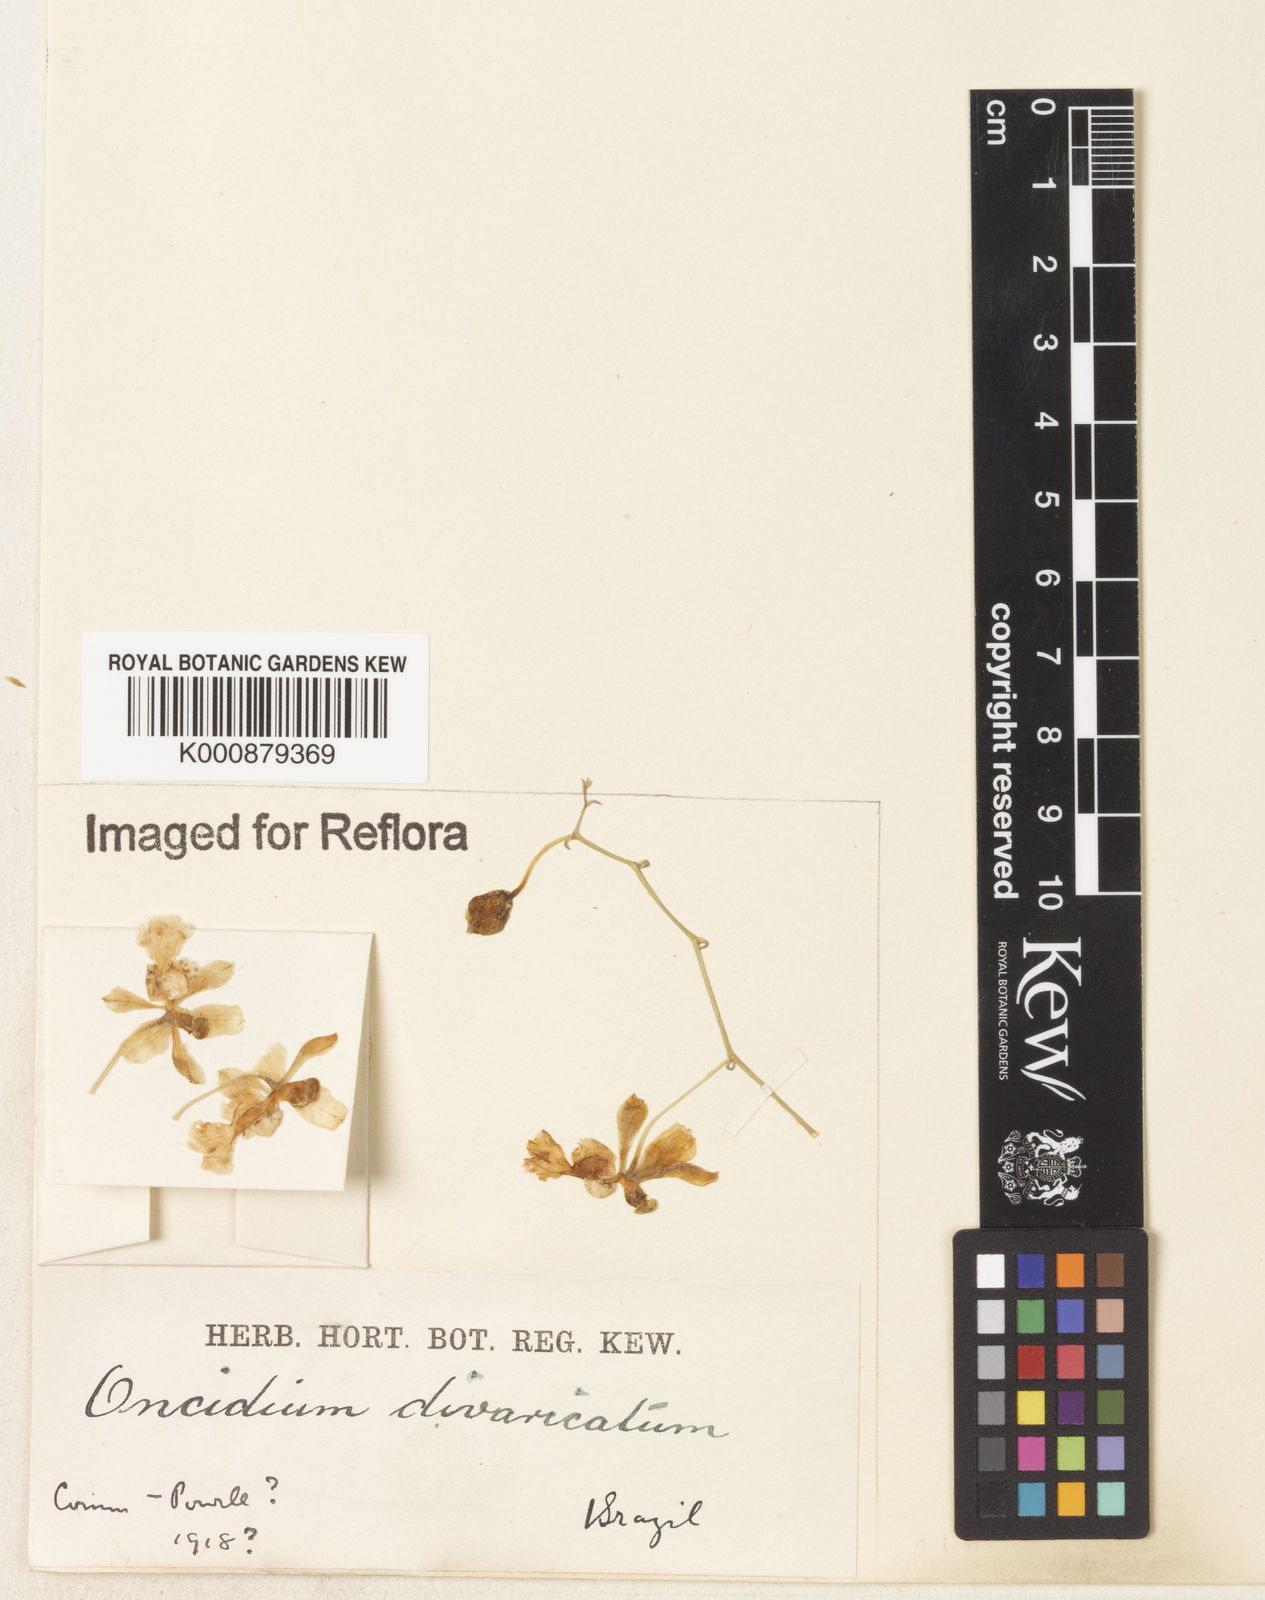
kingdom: Plantae
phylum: Tracheophyta
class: Liliopsida
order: Asparagales
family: Orchidaceae
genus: Grandiphyllum
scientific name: Grandiphyllum divaricatum
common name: Mule-ear orchid
